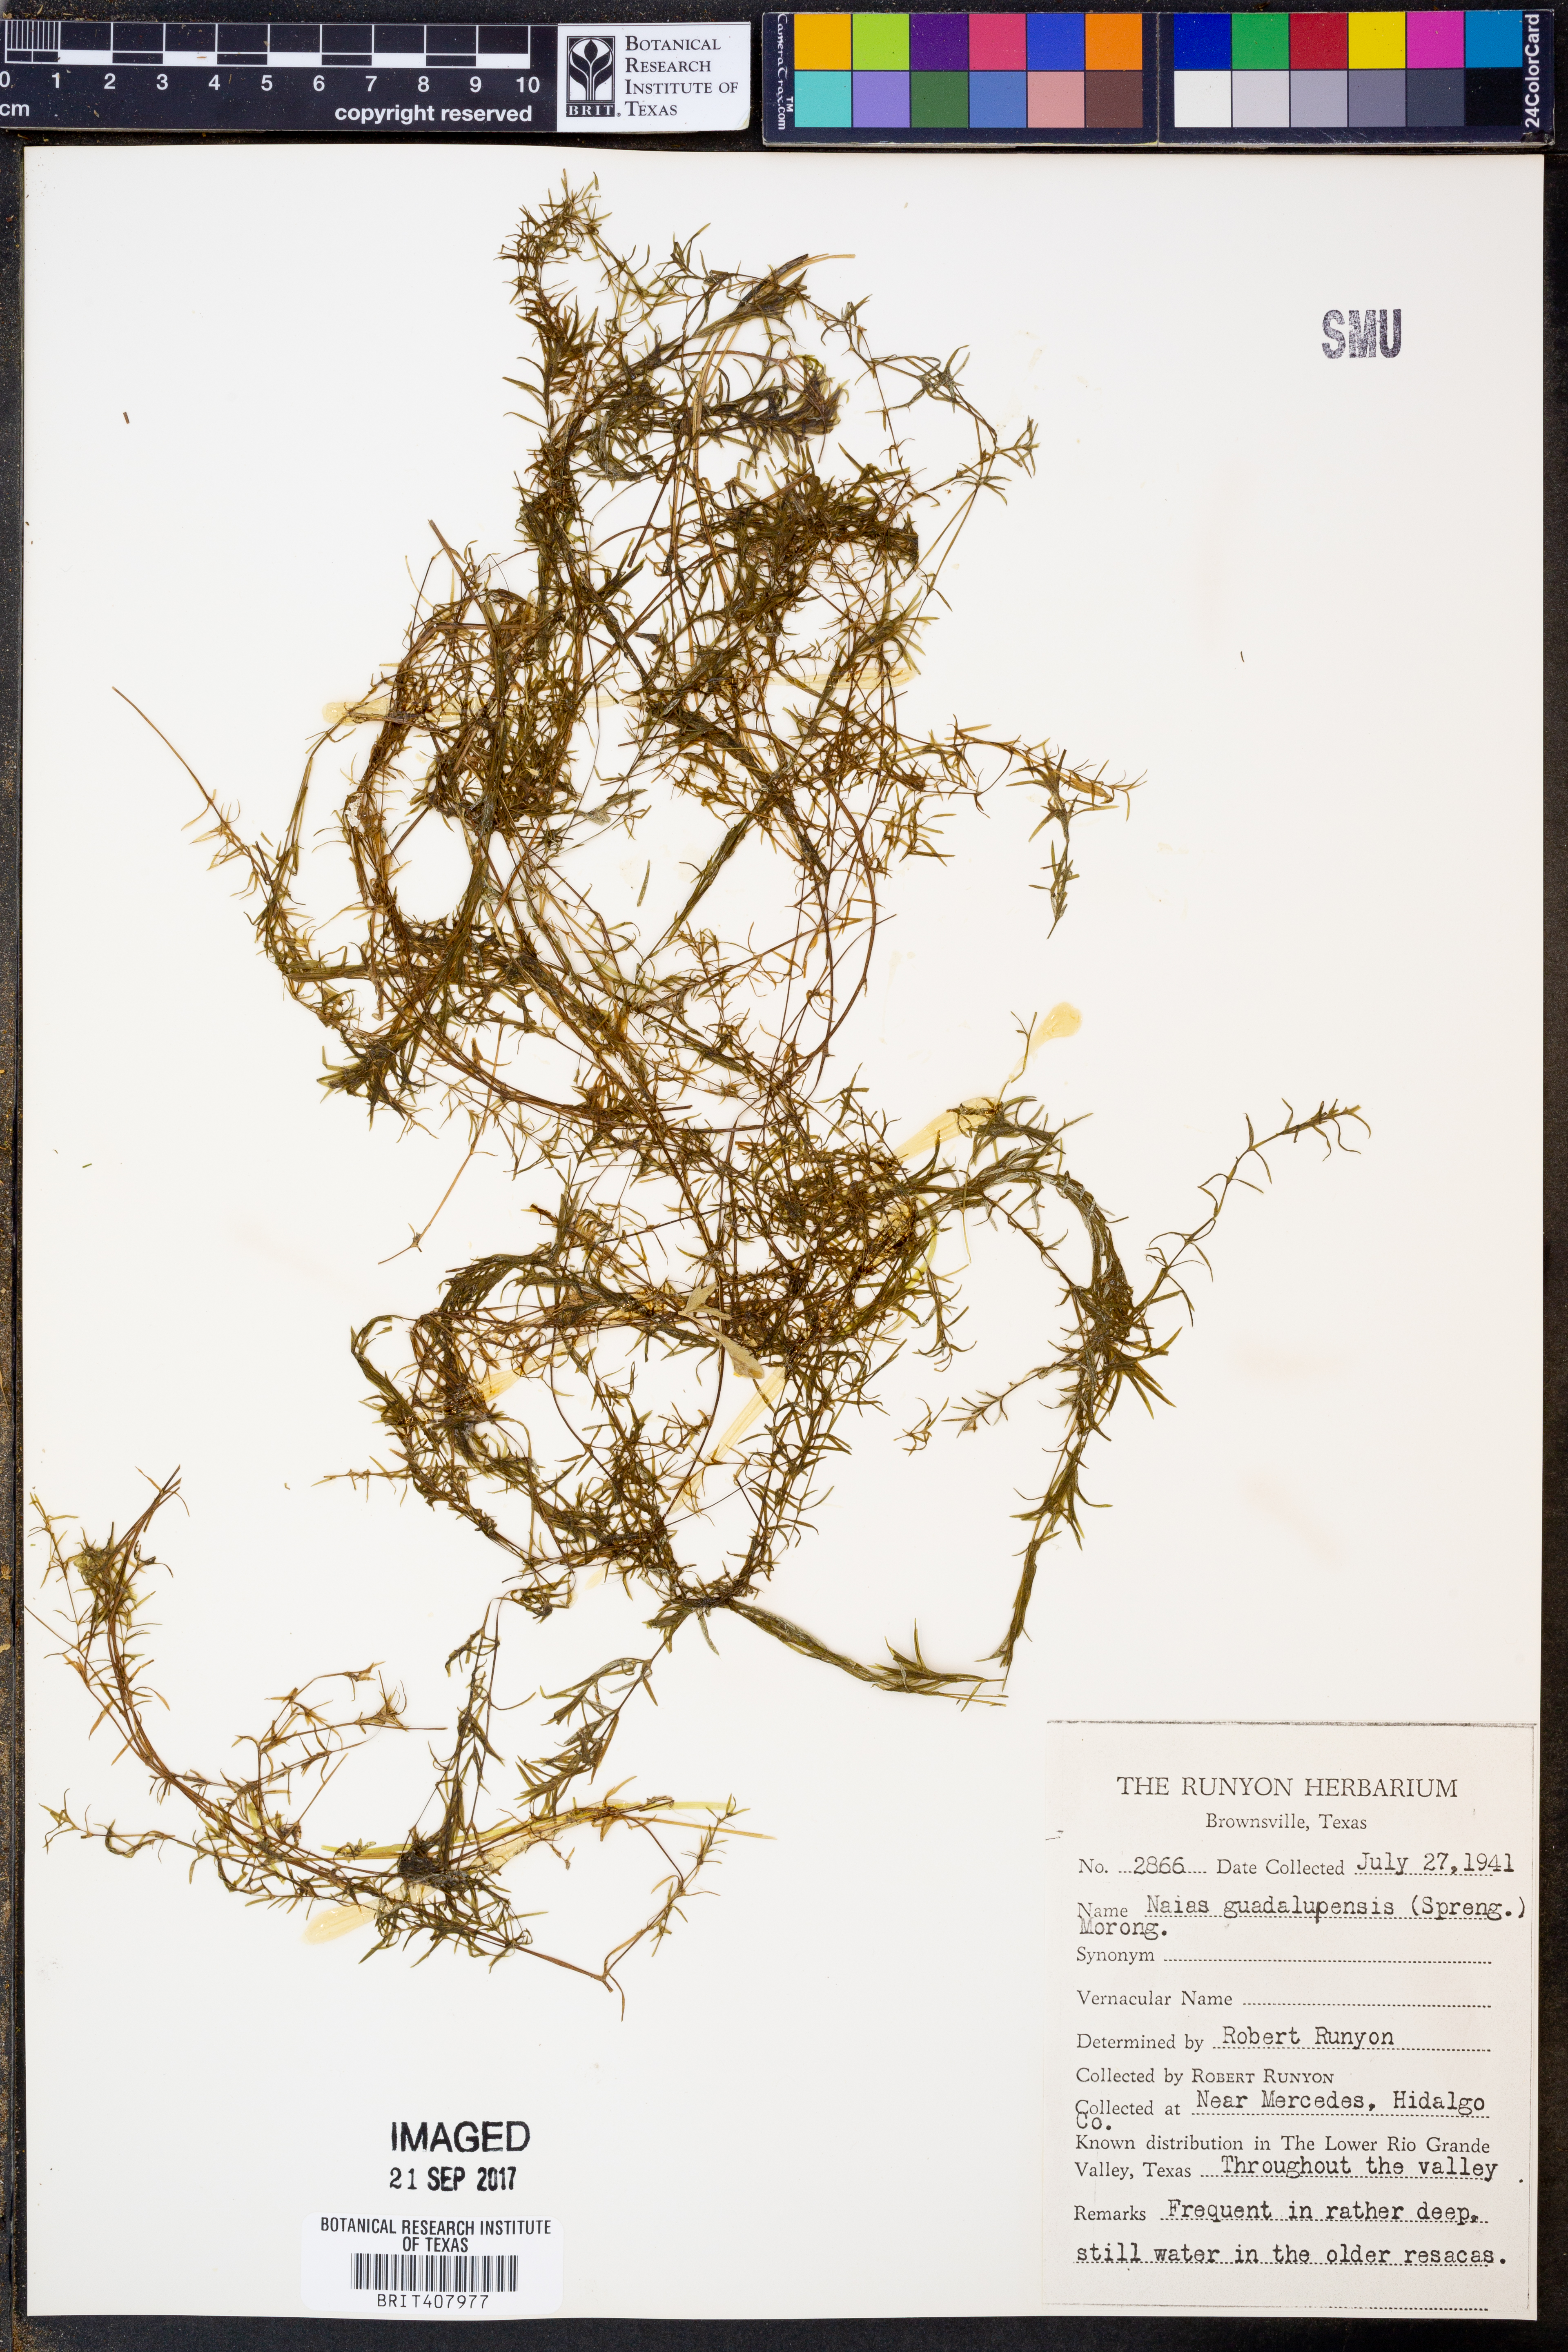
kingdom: Plantae
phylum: Tracheophyta
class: Liliopsida
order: Alismatales
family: Hydrocharitaceae
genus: Najas
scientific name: Najas guadalupensis
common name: Southern naiad
